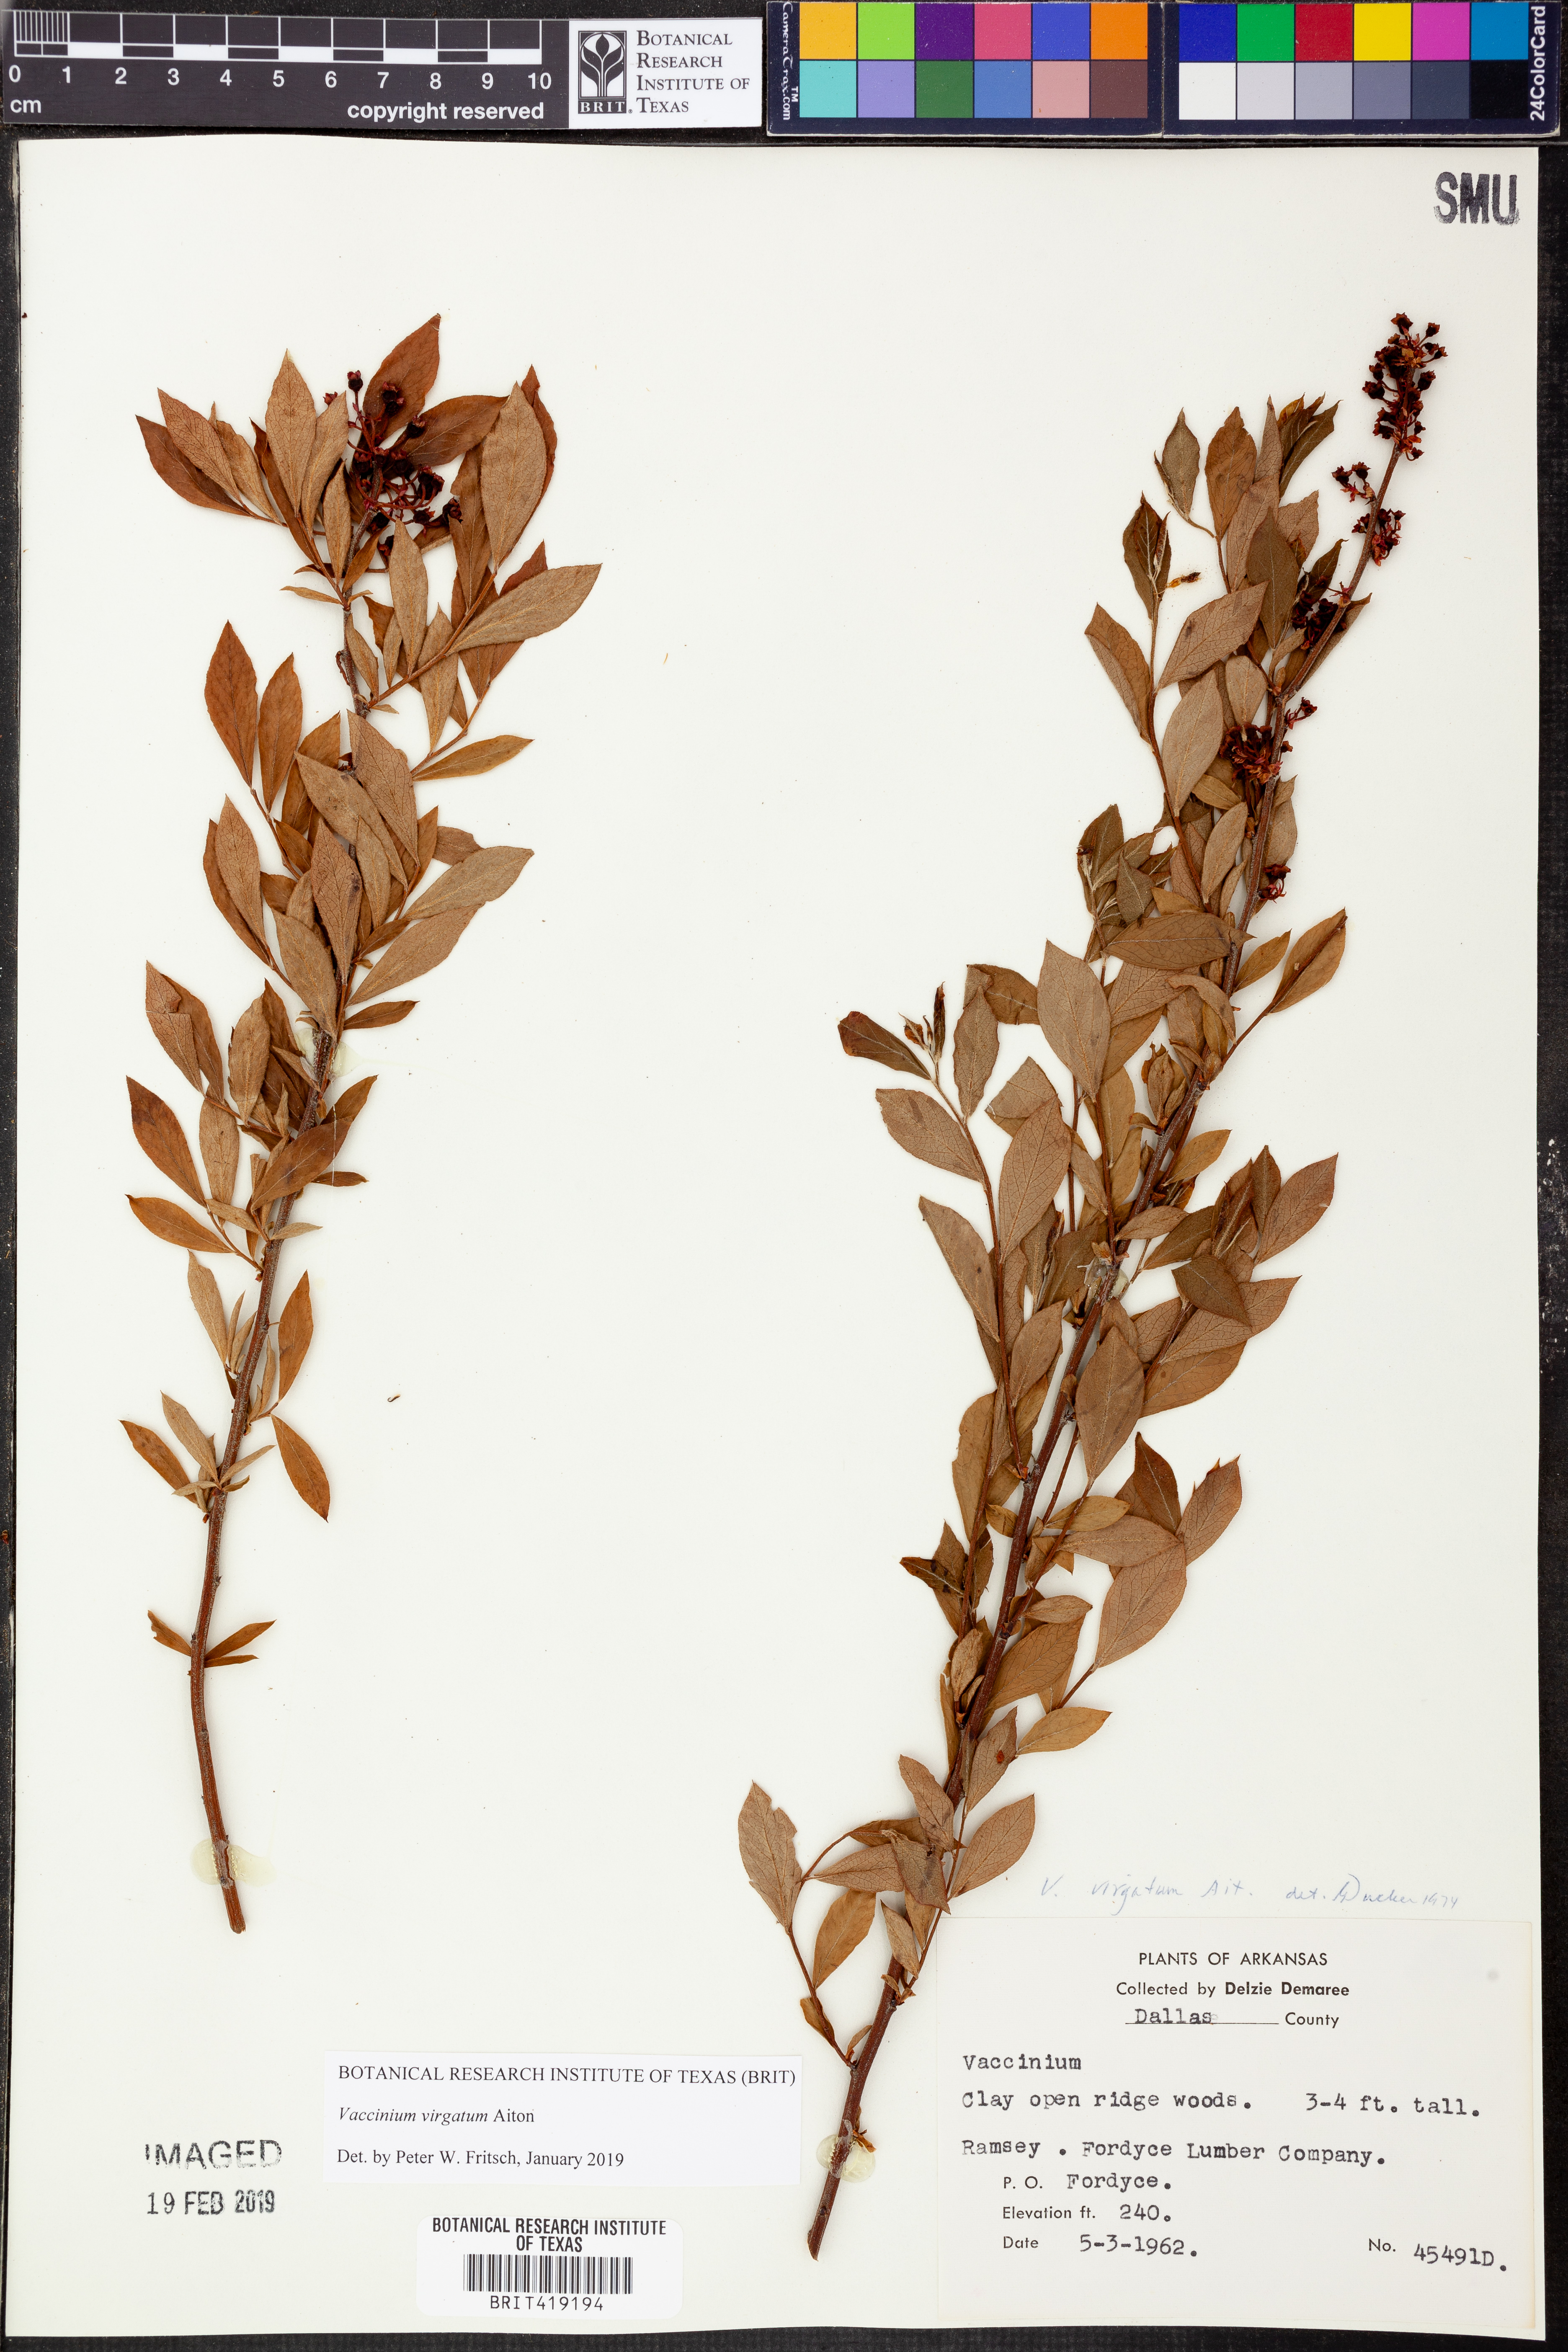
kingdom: Plantae
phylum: Tracheophyta
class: Magnoliopsida
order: Ericales
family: Ericaceae
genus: Vaccinium
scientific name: Vaccinium corymbosum
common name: Blueberry
